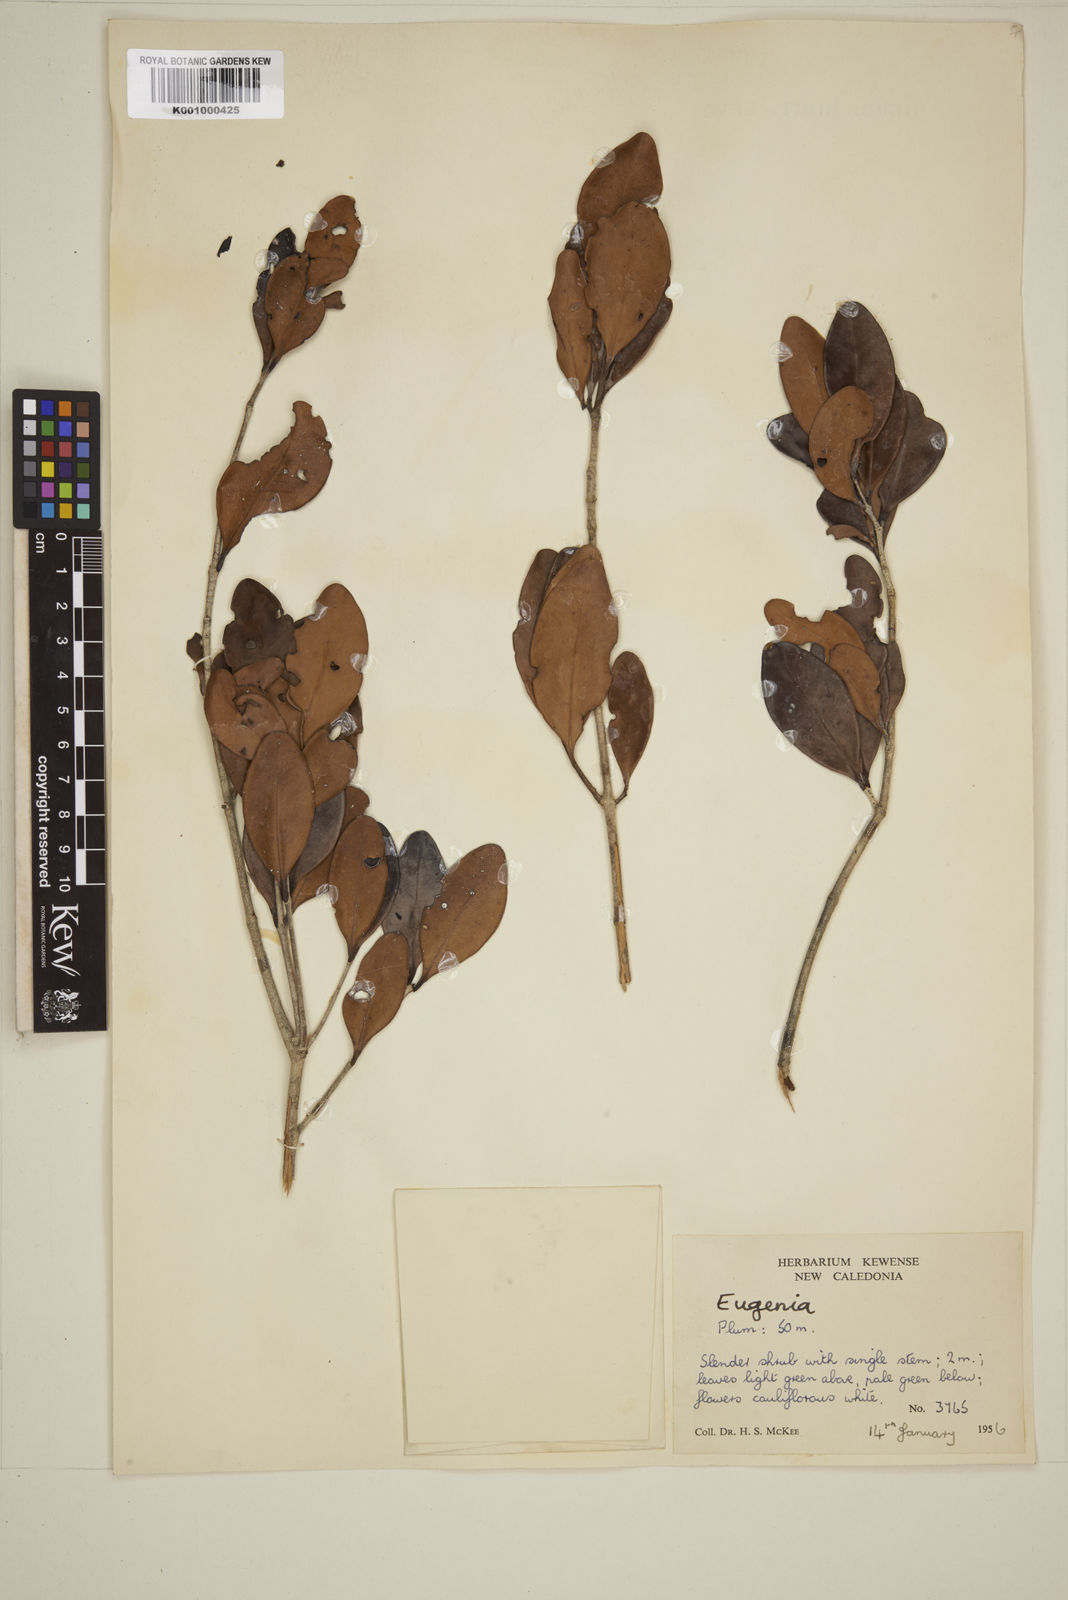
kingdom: Plantae
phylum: Tracheophyta
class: Magnoliopsida
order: Myrtales
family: Myrtaceae
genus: Eugenia
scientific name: Eugenia
